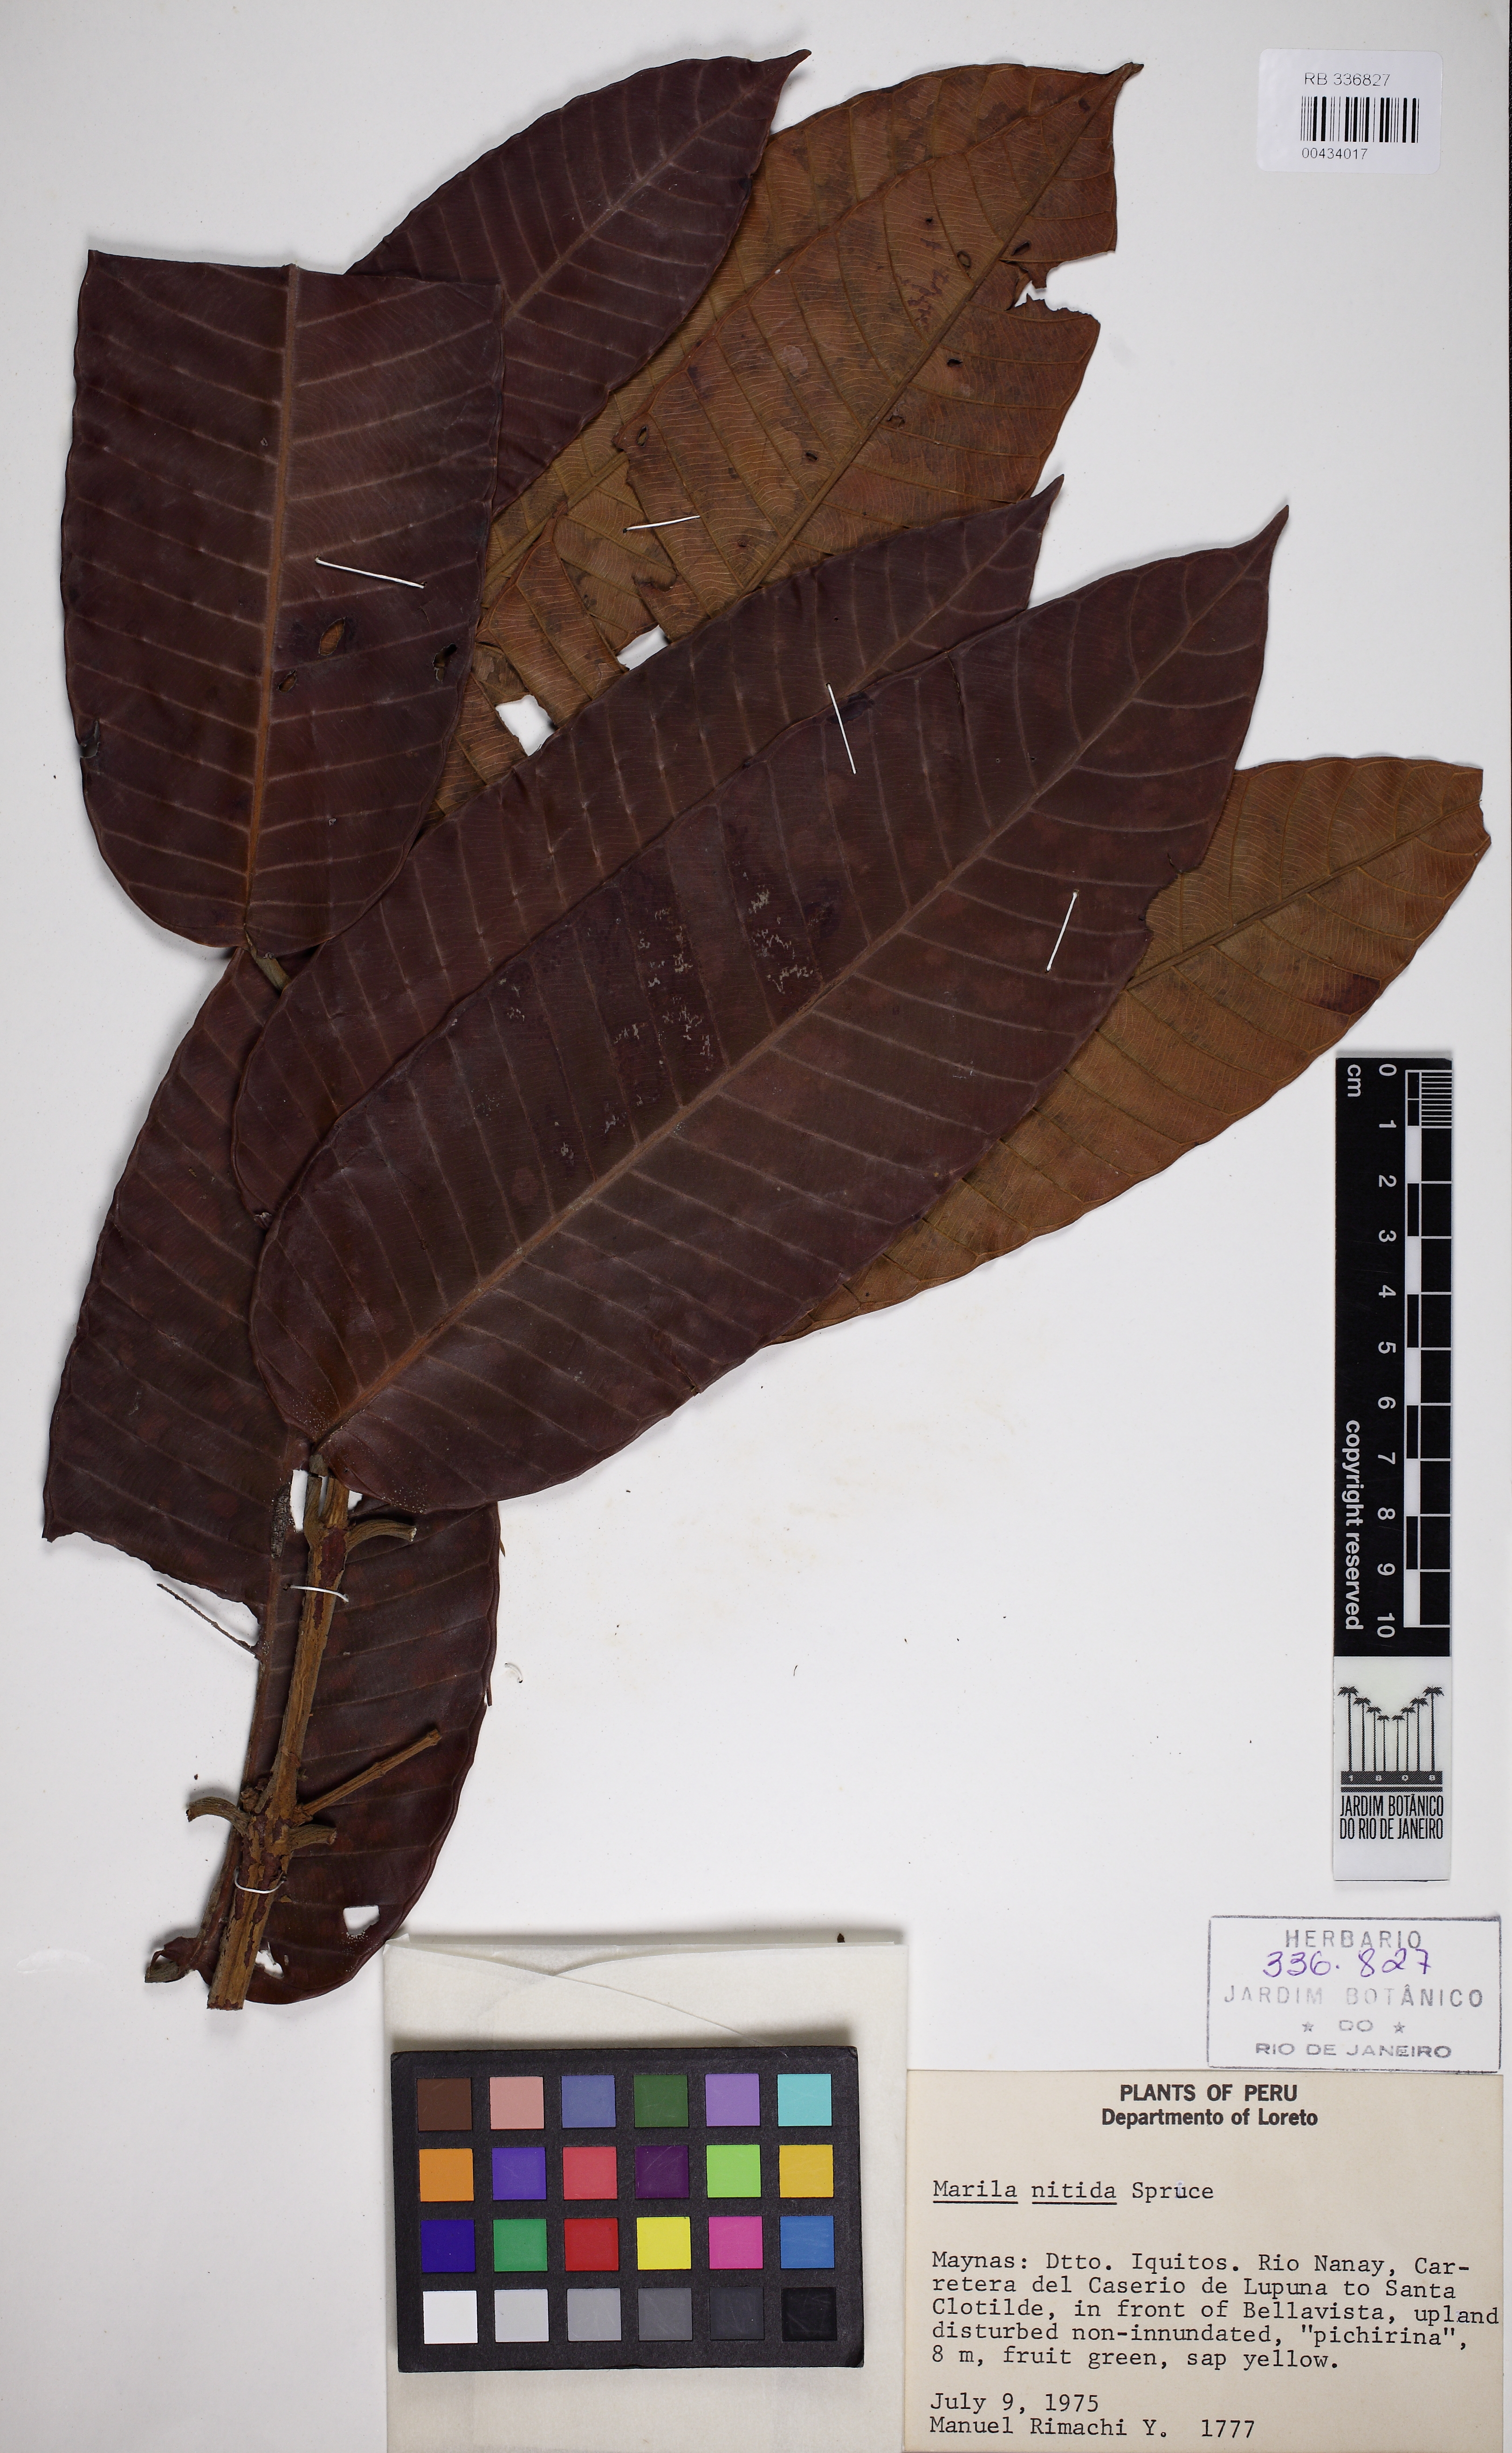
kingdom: Plantae
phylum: Tracheophyta
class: Magnoliopsida
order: Malpighiales
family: Calophyllaceae
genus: Marila
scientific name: Marila nitida
